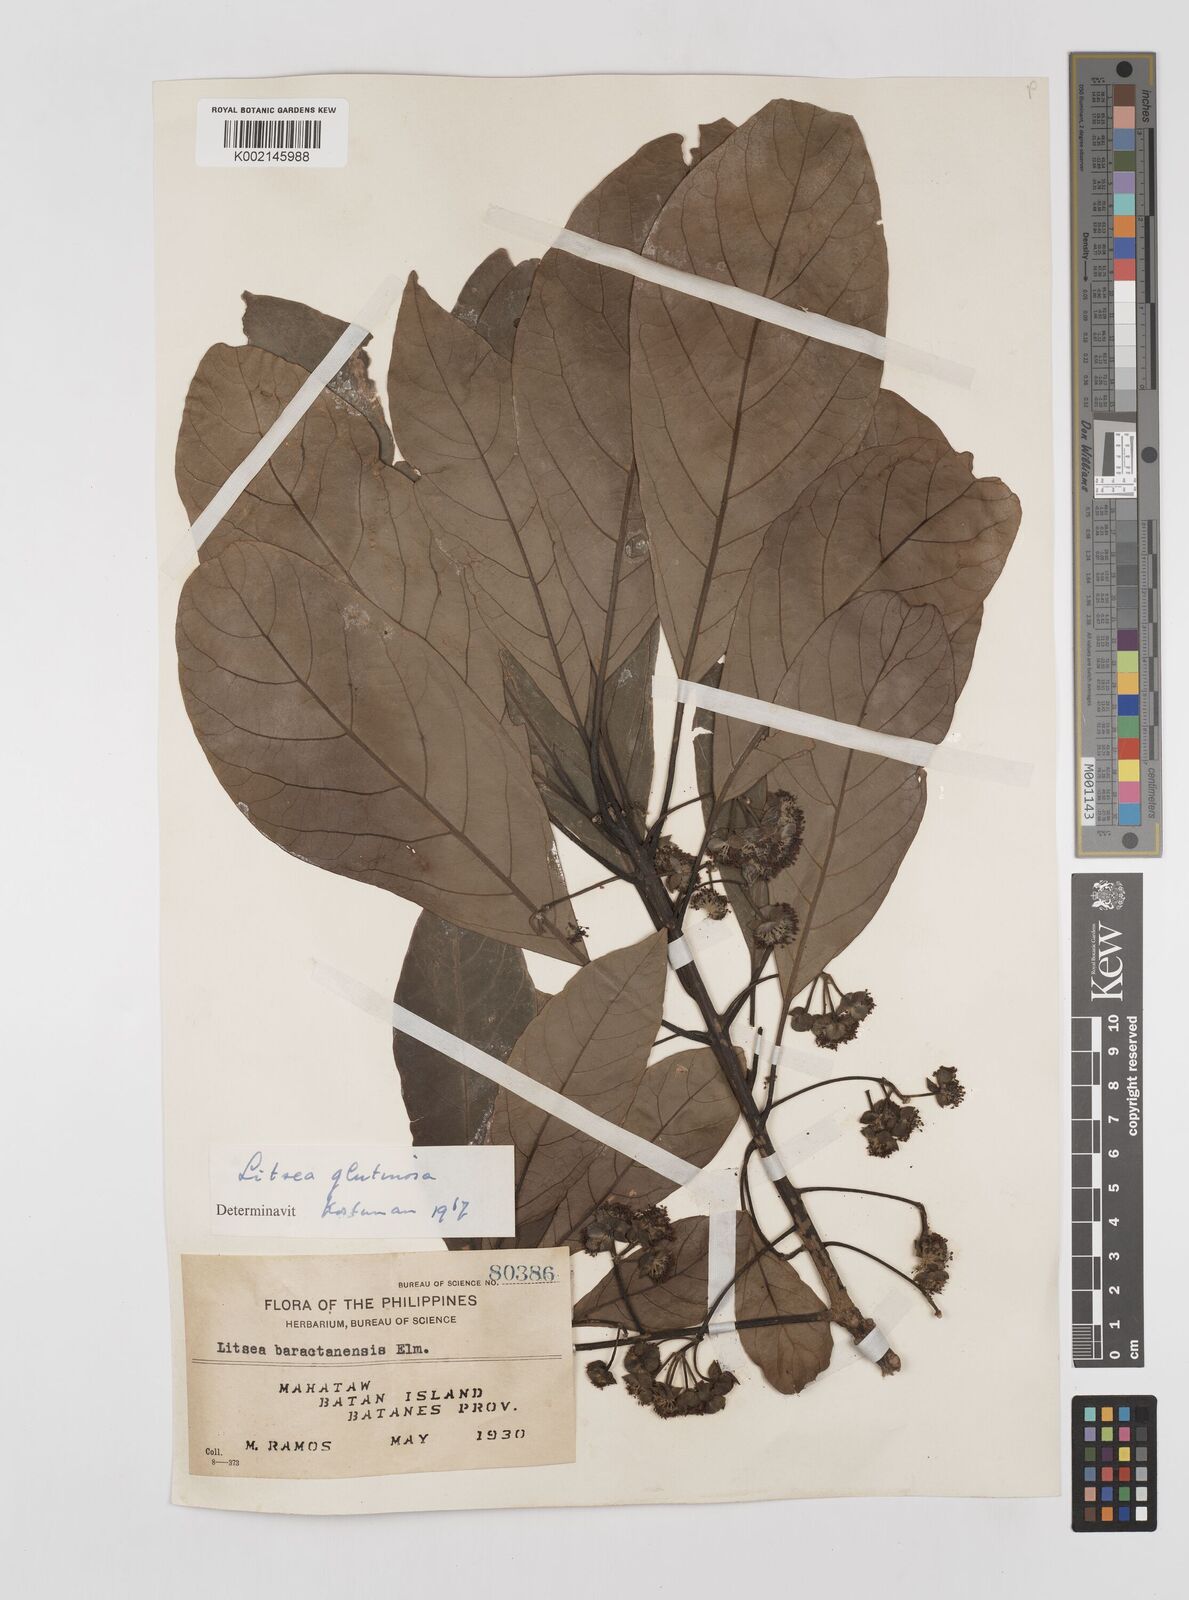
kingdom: Plantae
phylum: Tracheophyta
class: Magnoliopsida
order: Laurales
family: Lauraceae
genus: Litsea
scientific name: Litsea glutinosa
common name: Indian-laurel
